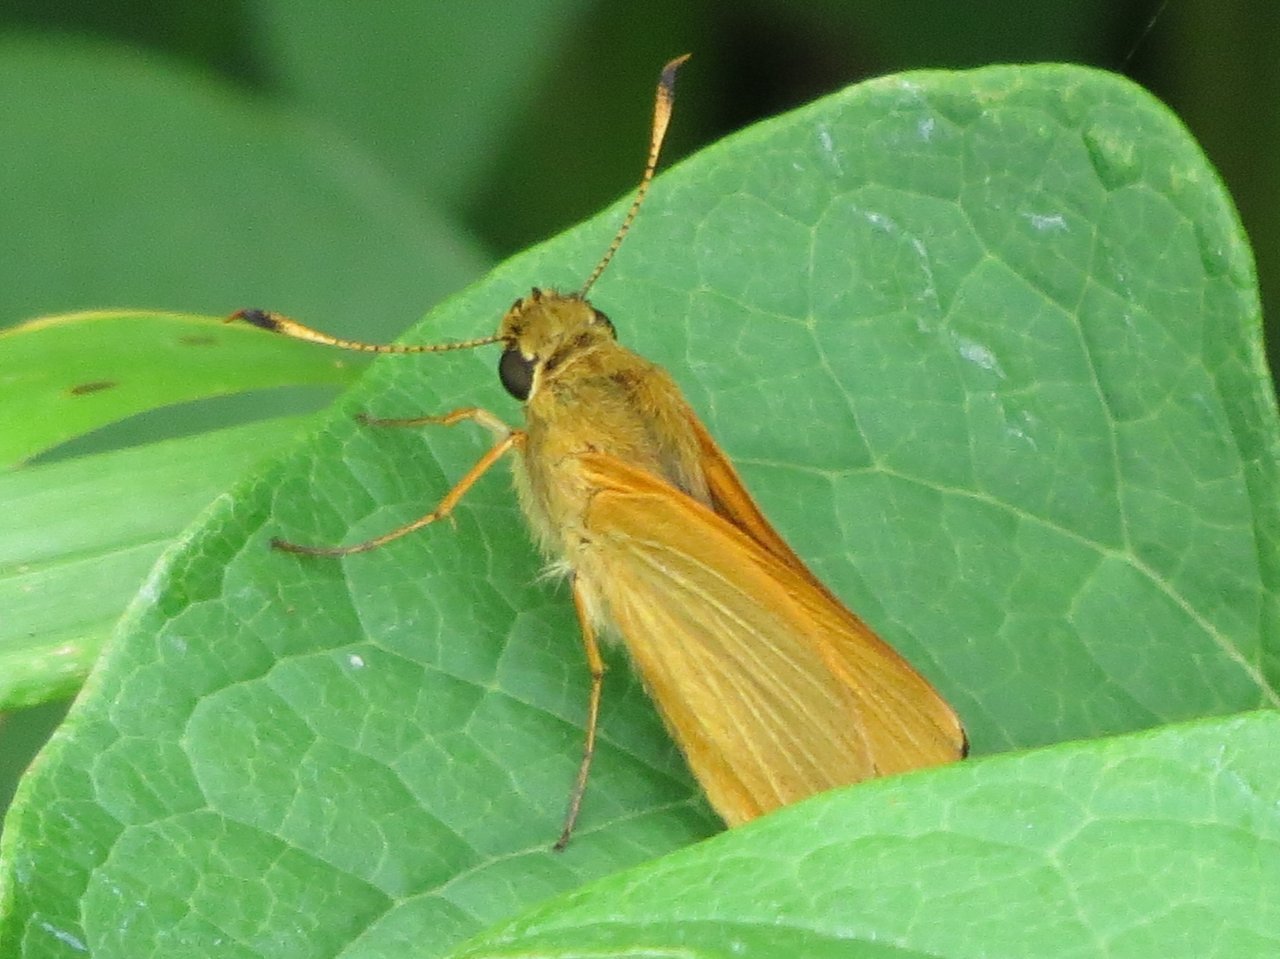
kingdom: Animalia
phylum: Arthropoda
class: Insecta
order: Lepidoptera
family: Hesperiidae
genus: Problema
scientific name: Problema bulenta
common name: Rare Skipper
